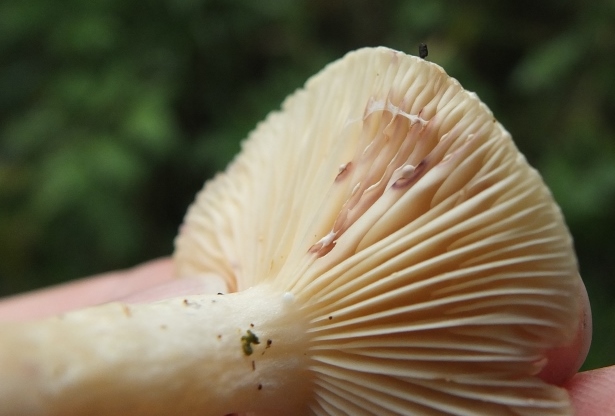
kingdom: Fungi
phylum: Basidiomycota
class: Agaricomycetes
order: Russulales
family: Russulaceae
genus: Lactarius
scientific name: Lactarius aspideus
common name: pile-mælkehat
